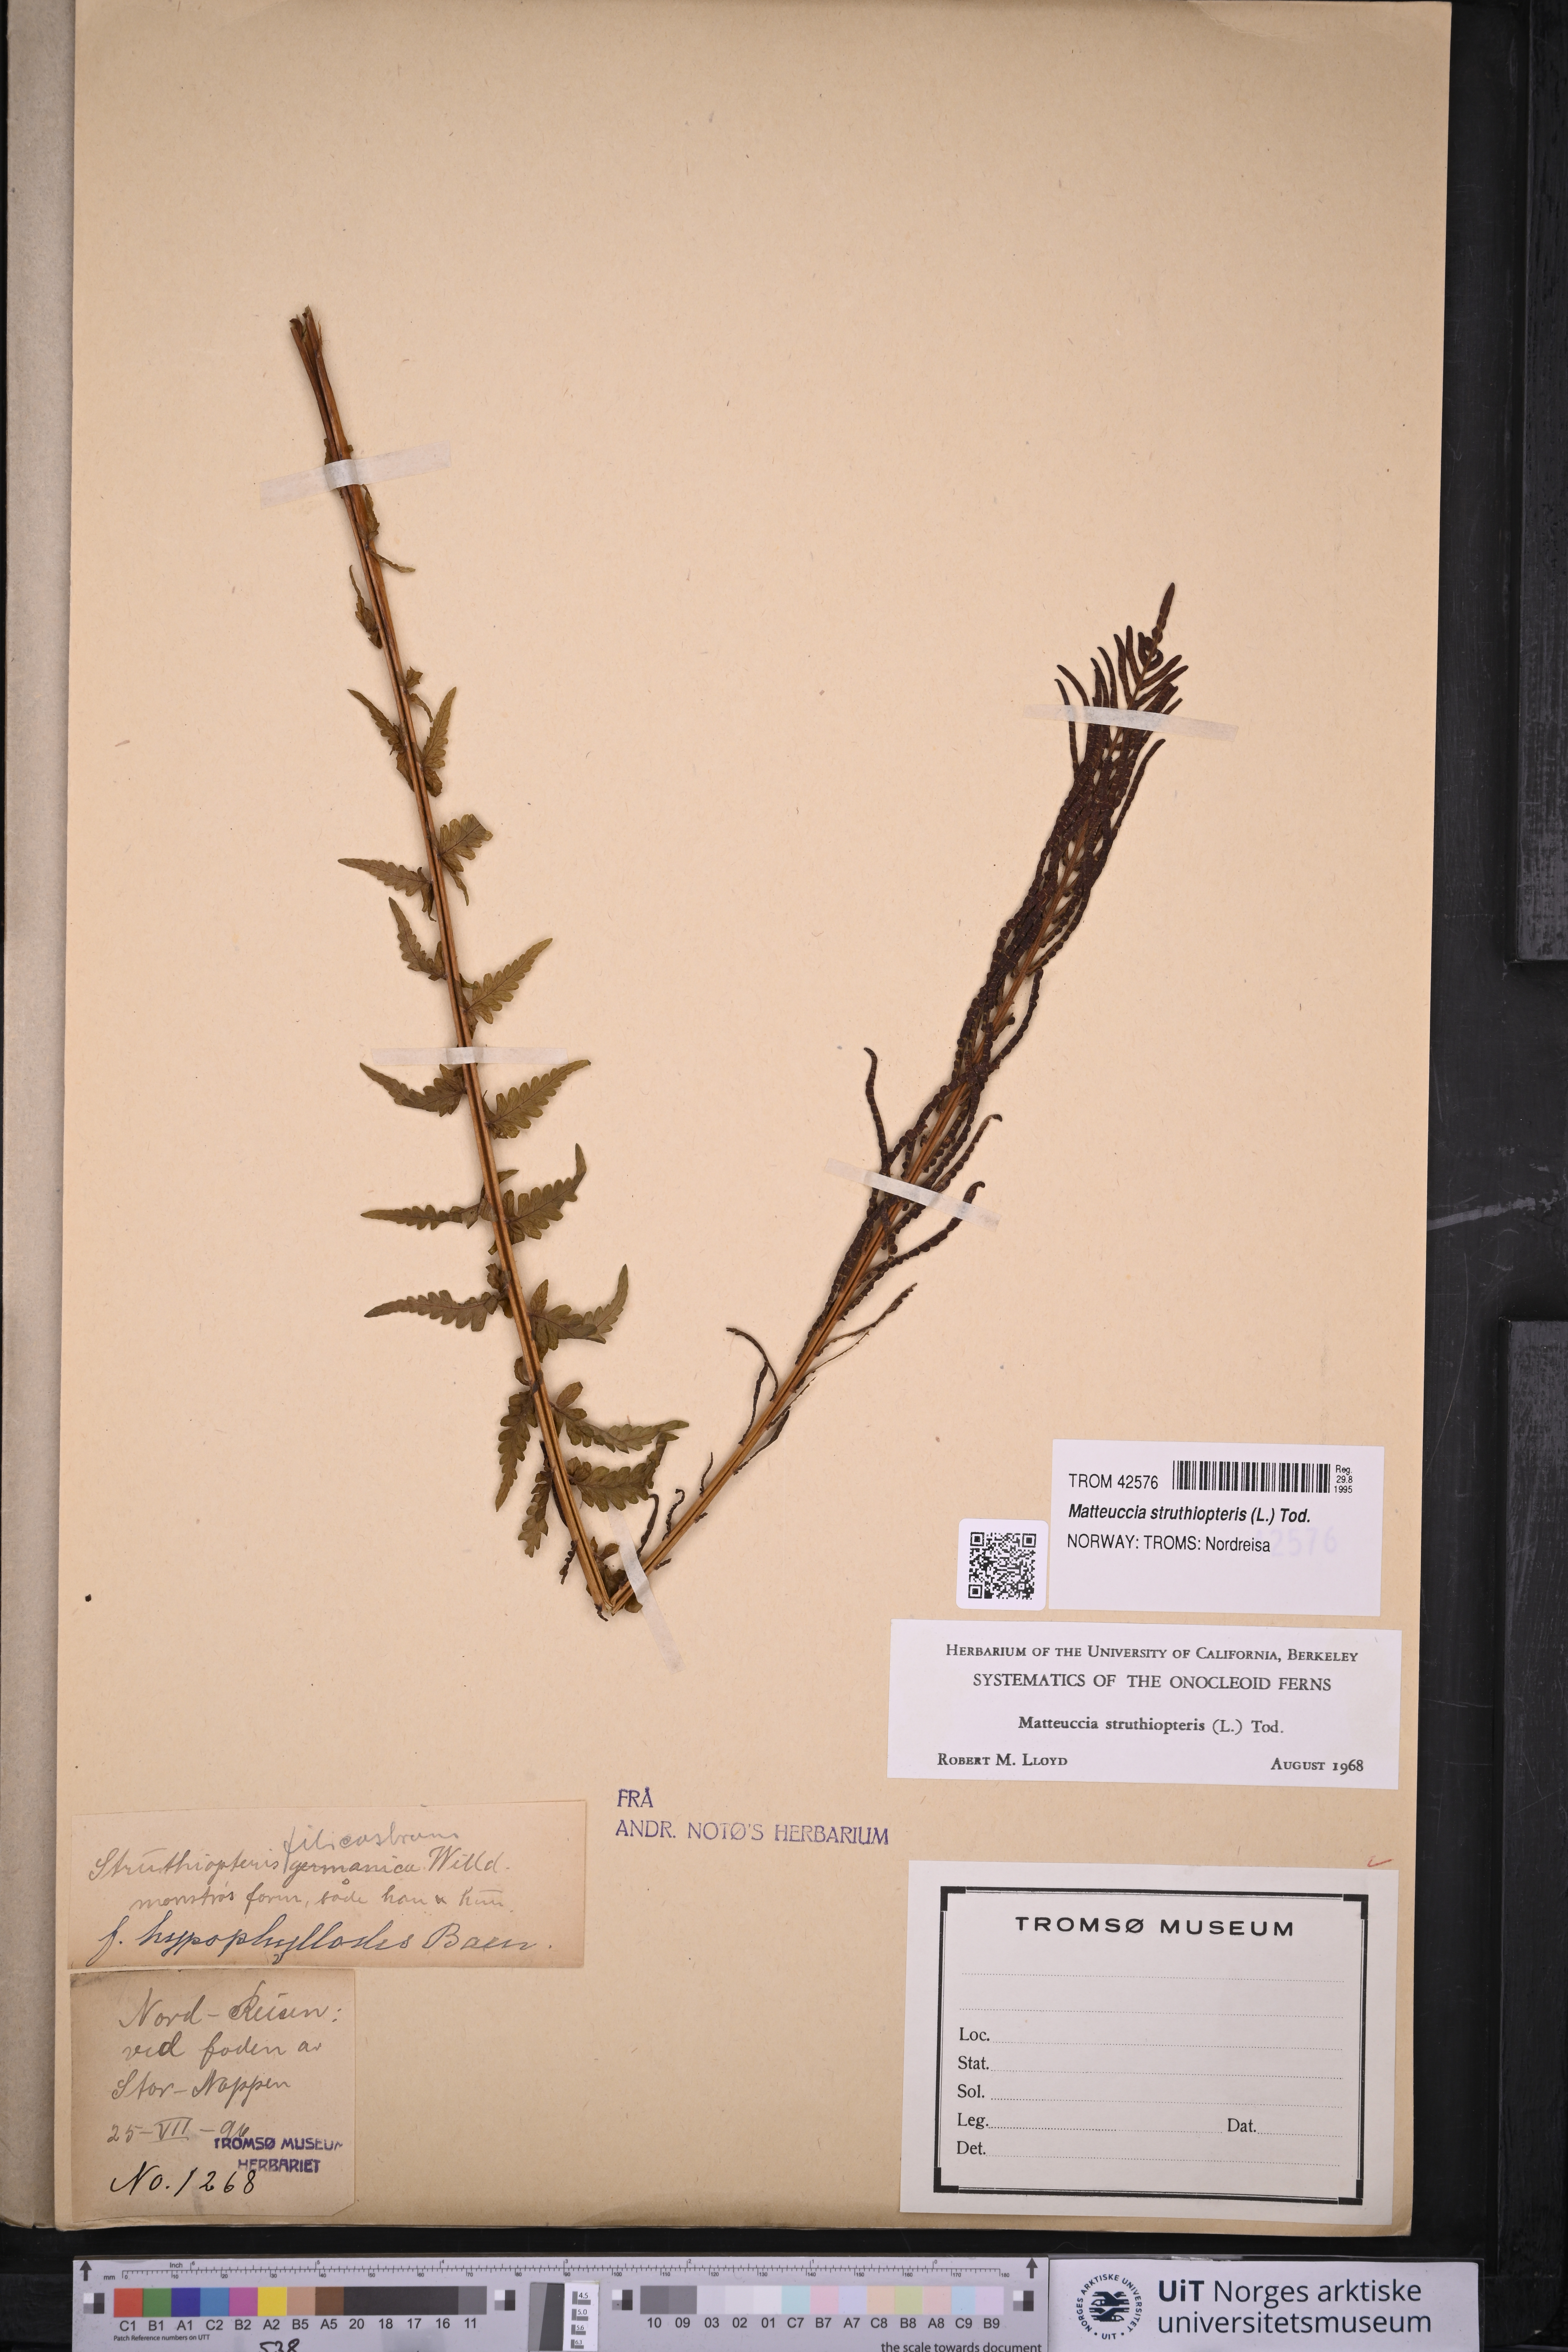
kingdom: Plantae
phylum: Tracheophyta
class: Polypodiopsida
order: Polypodiales
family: Onocleaceae
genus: Matteuccia
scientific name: Matteuccia struthiopteris
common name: Ostrich fern
